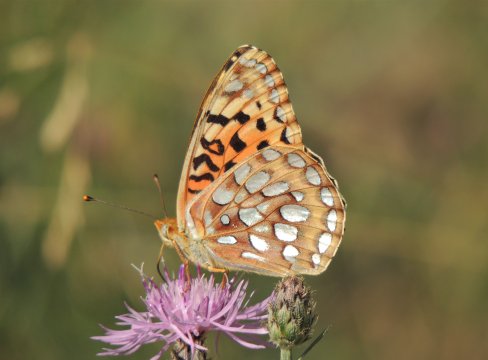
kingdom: Animalia
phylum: Arthropoda
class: Insecta
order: Lepidoptera
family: Nymphalidae
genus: Speyeria
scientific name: Speyeria zerene
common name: Zerene Fritillary
